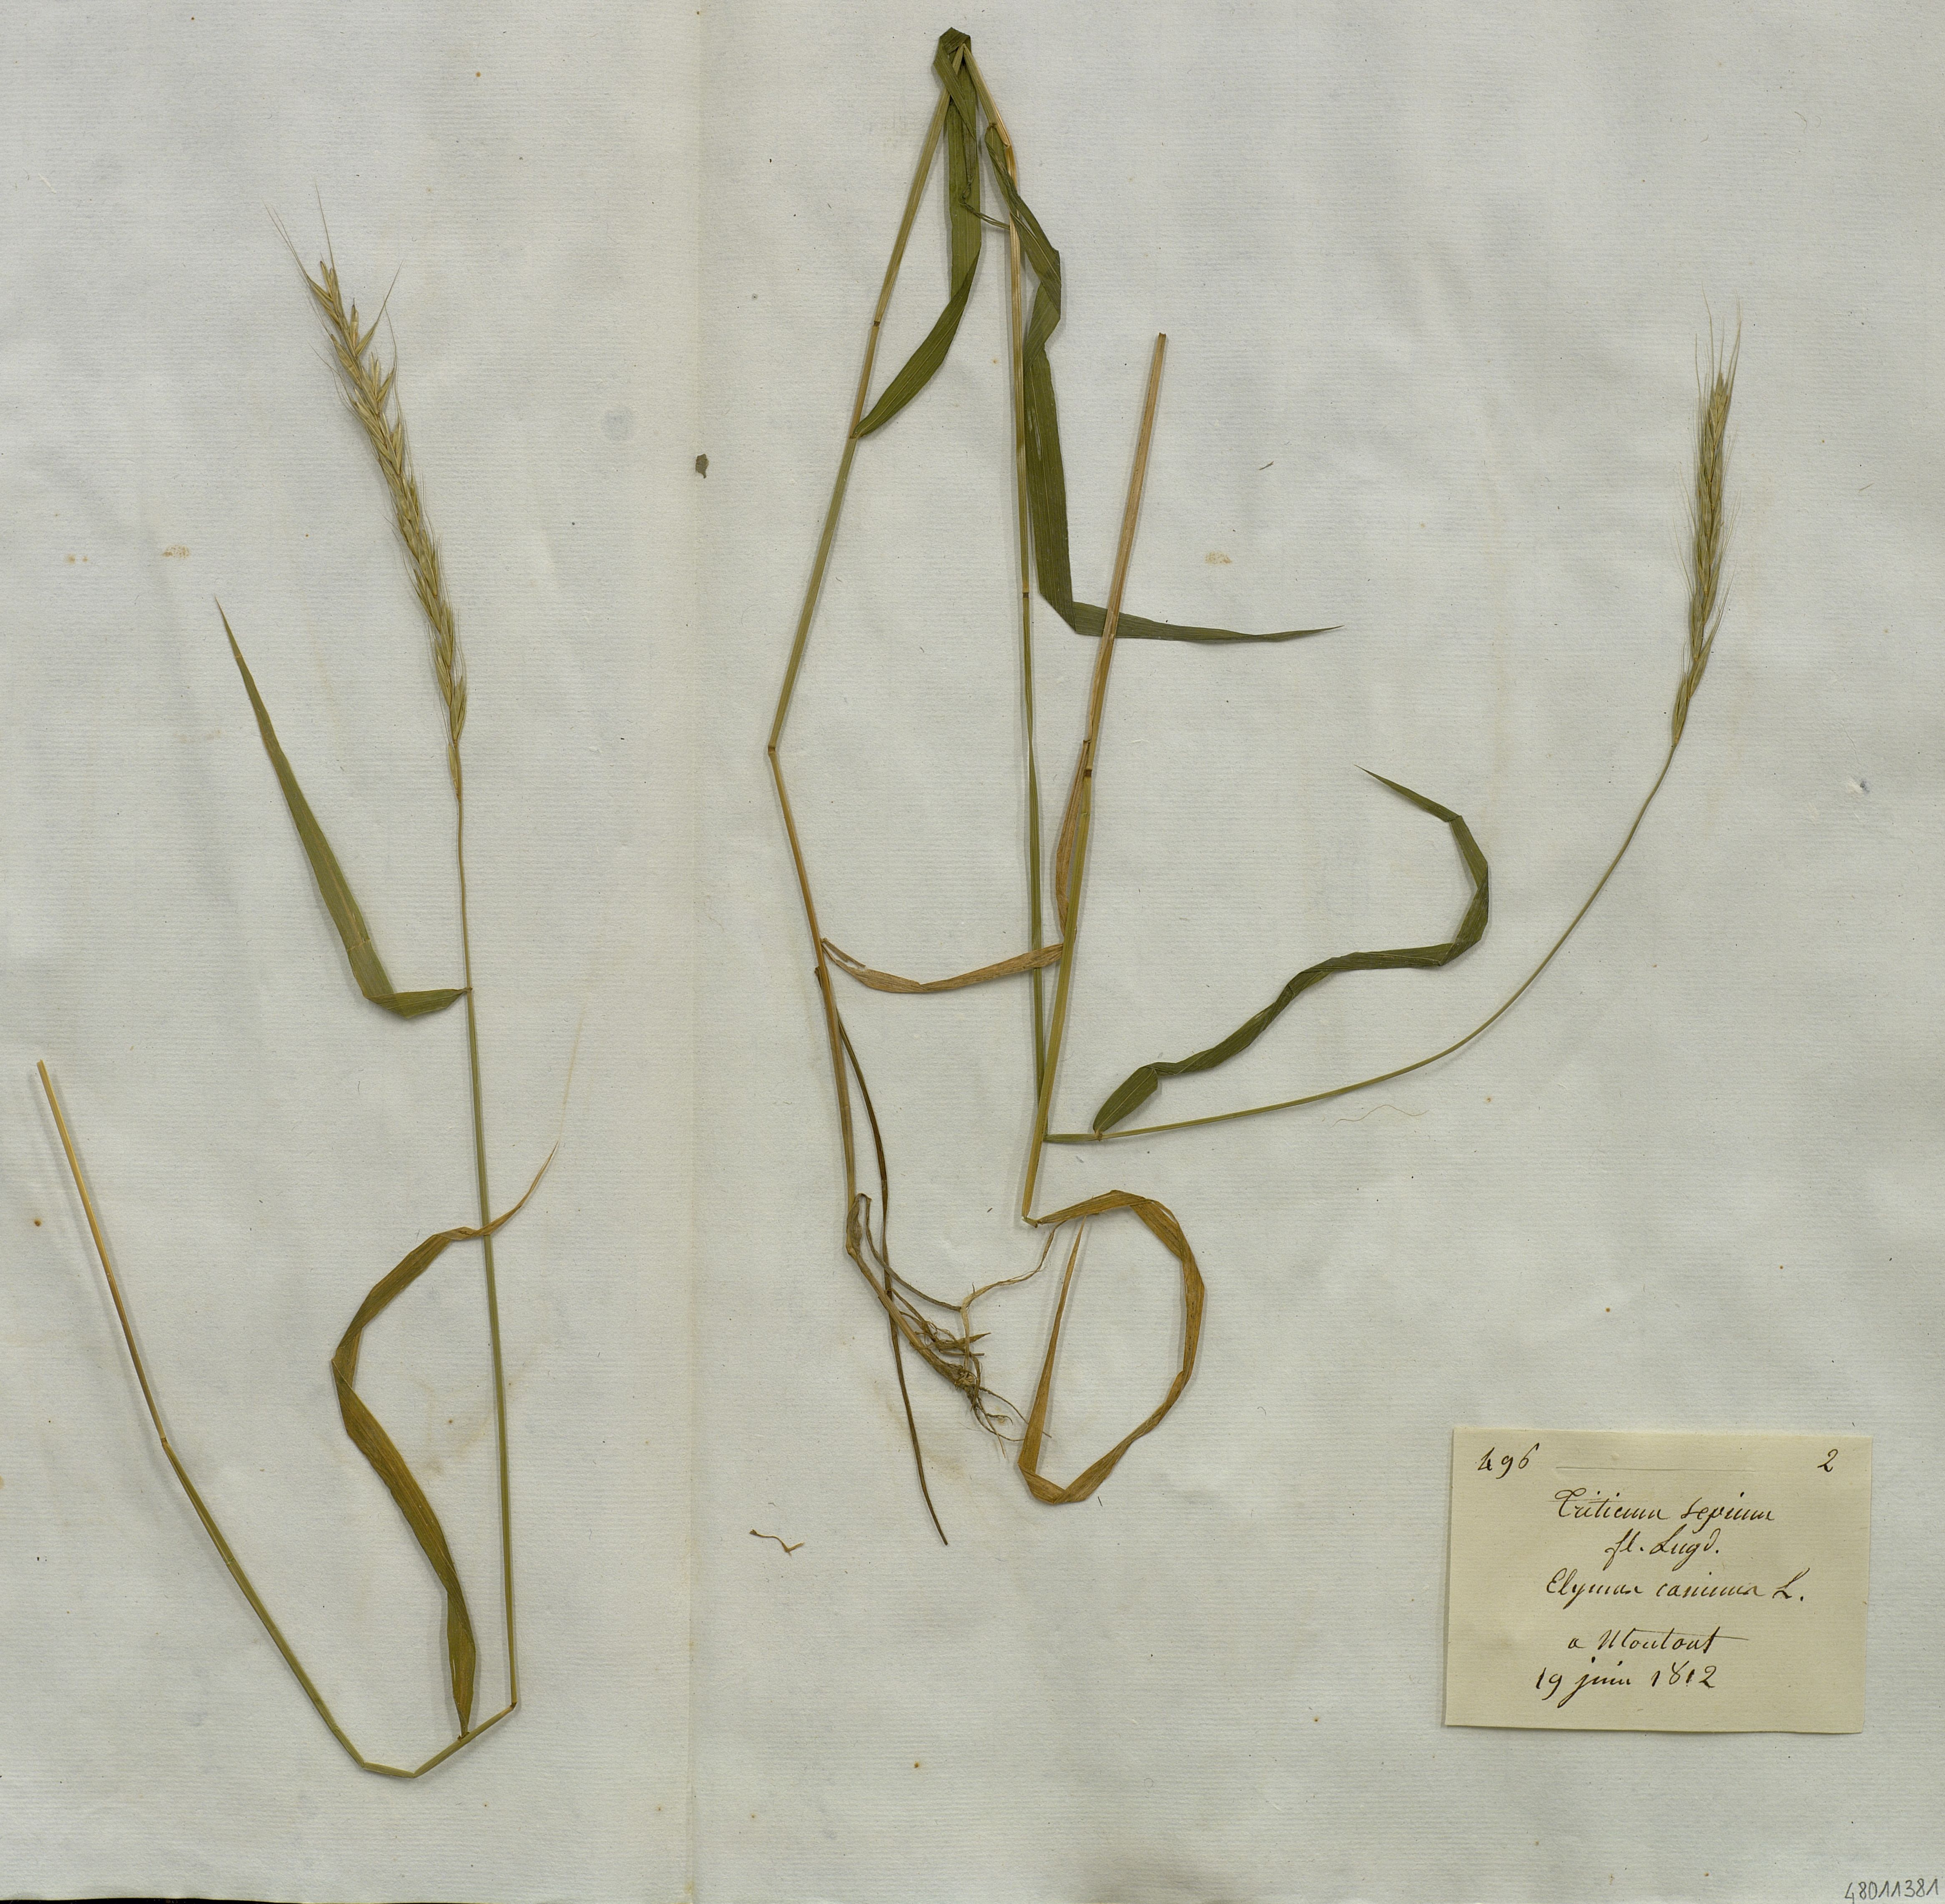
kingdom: Plantae
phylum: Tracheophyta
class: Liliopsida
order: Poales
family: Poaceae
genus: Elymus
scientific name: Elymus
